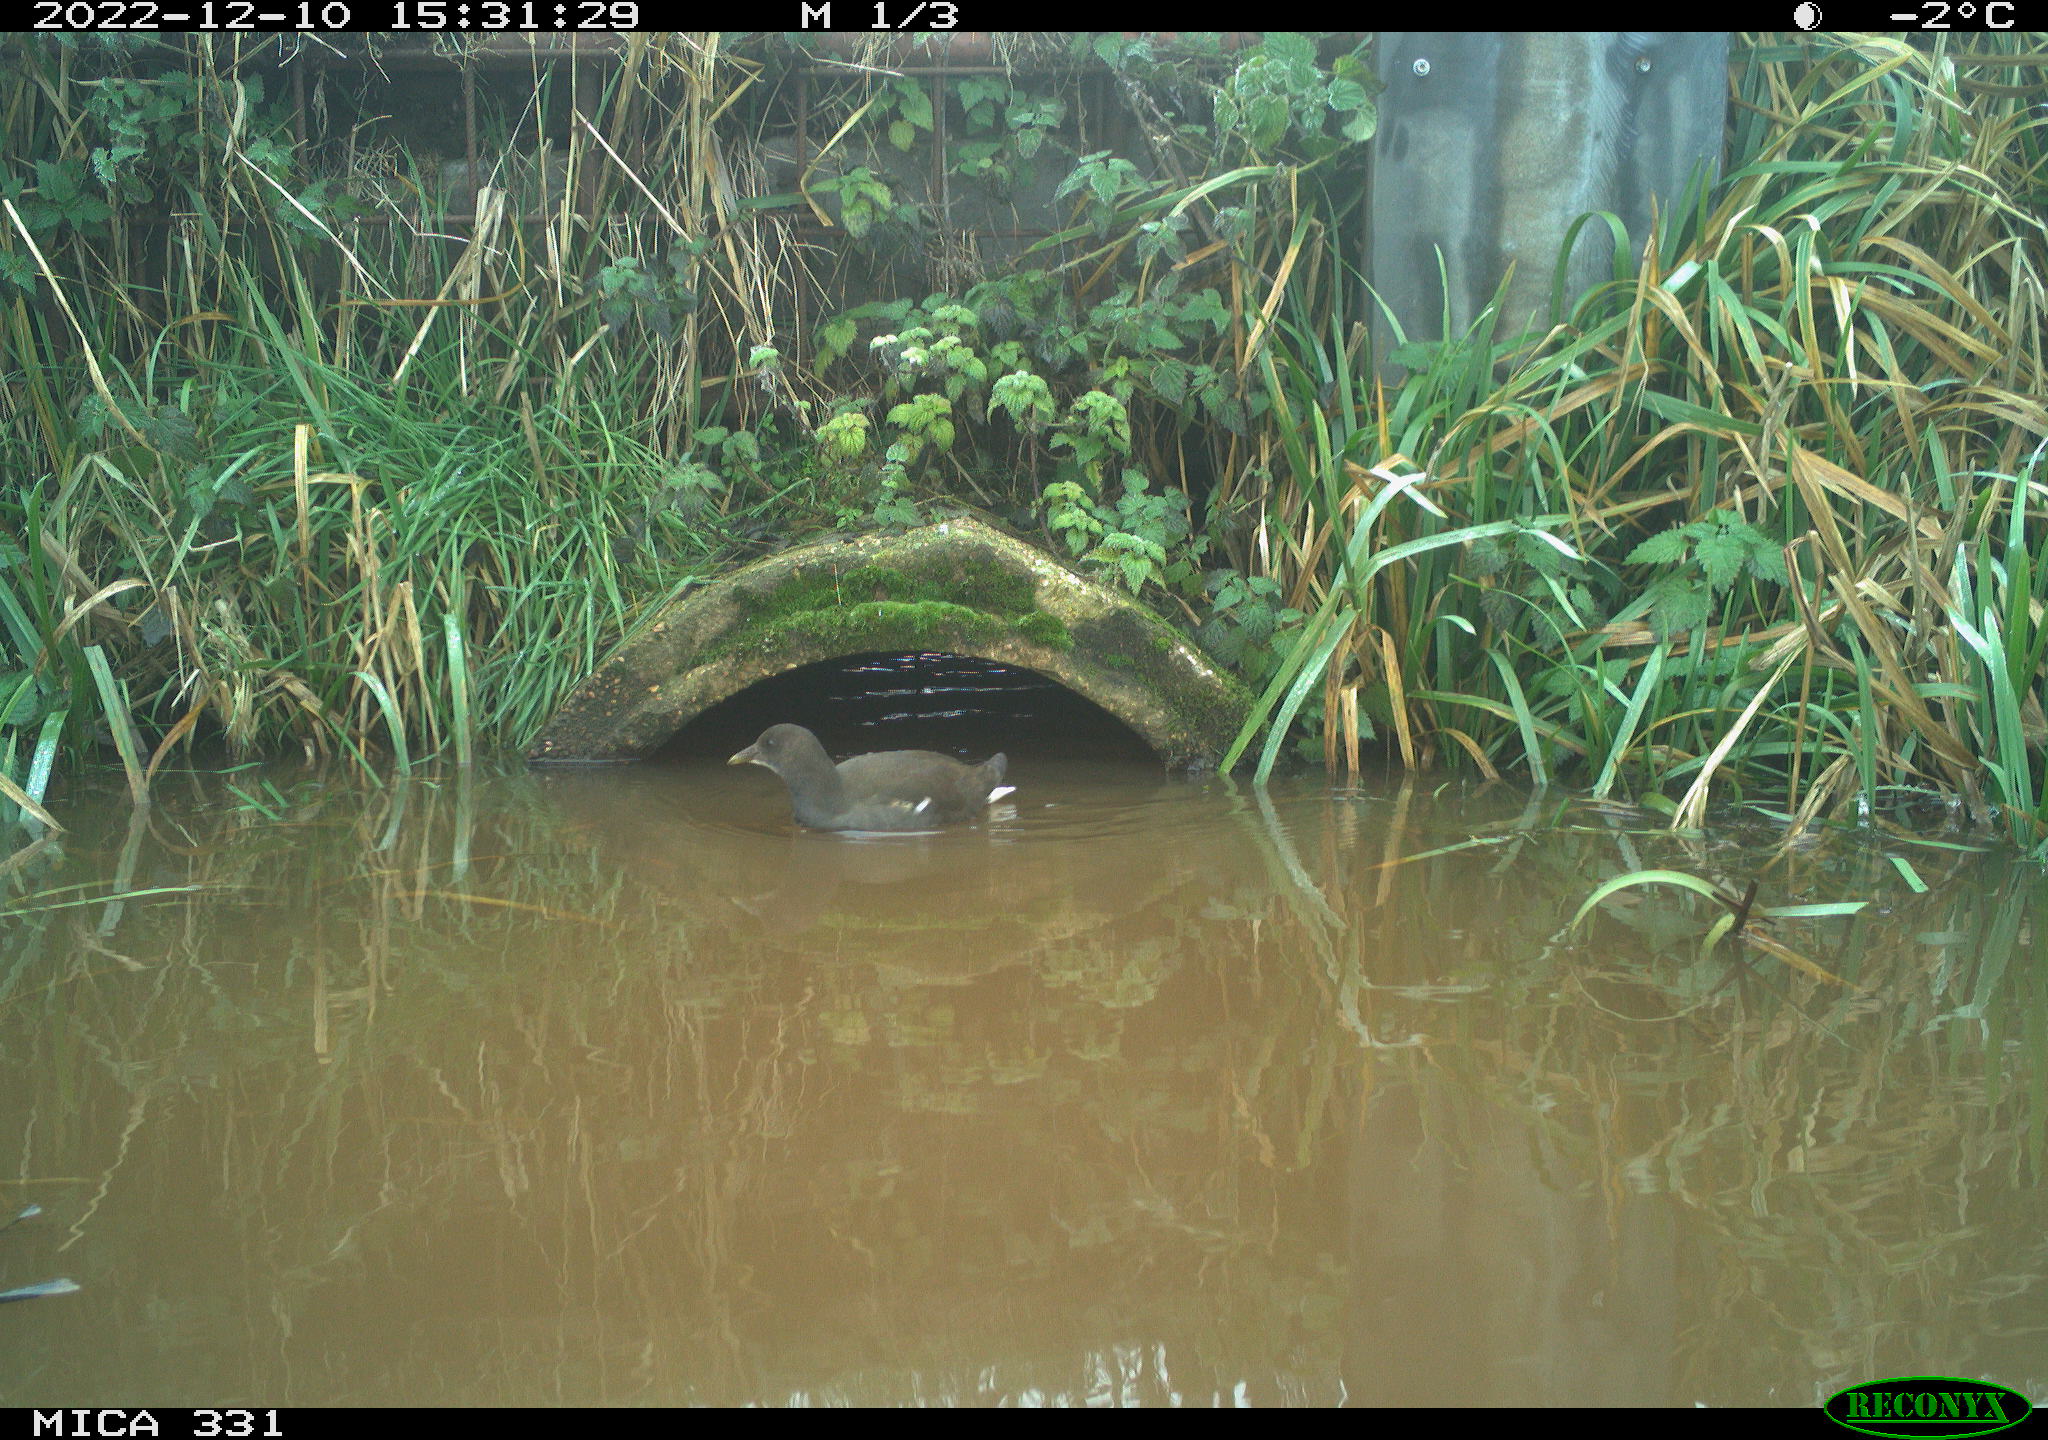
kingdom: Animalia
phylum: Chordata
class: Aves
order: Gruiformes
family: Rallidae
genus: Gallinula
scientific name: Gallinula chloropus
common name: Common moorhen
